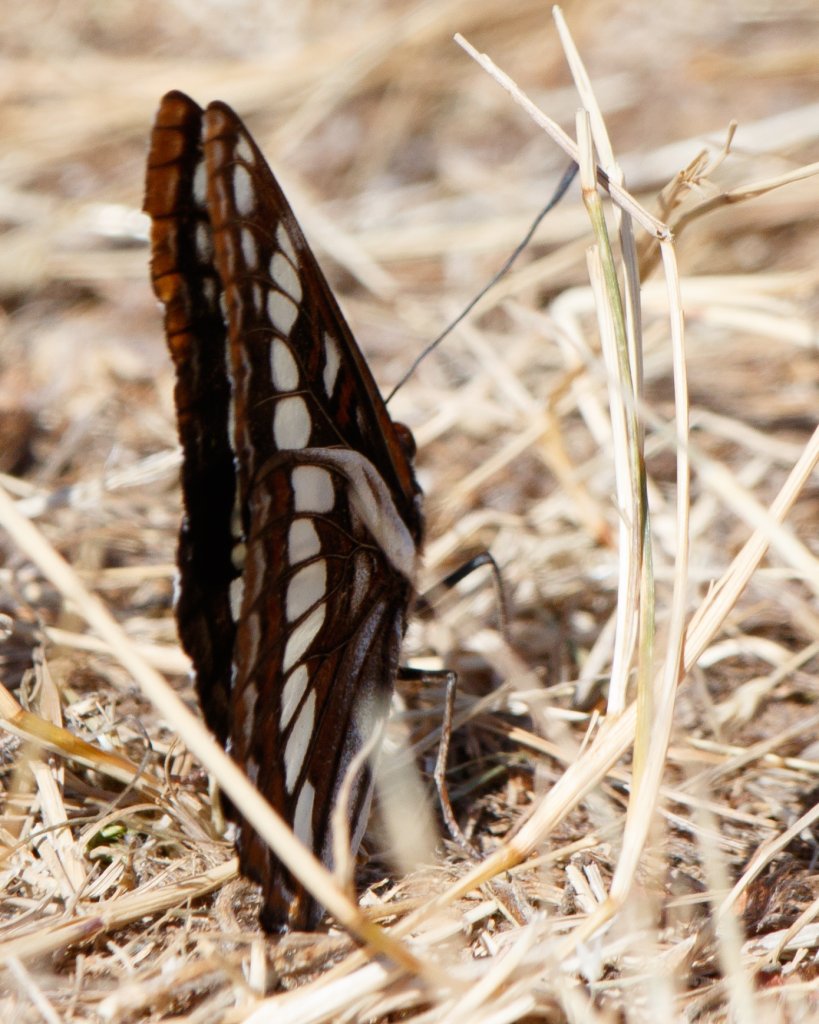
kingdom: Animalia
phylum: Arthropoda
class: Insecta
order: Lepidoptera
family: Nymphalidae
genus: Limenitis
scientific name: Limenitis lorquini
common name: Lorquin's Admiral
